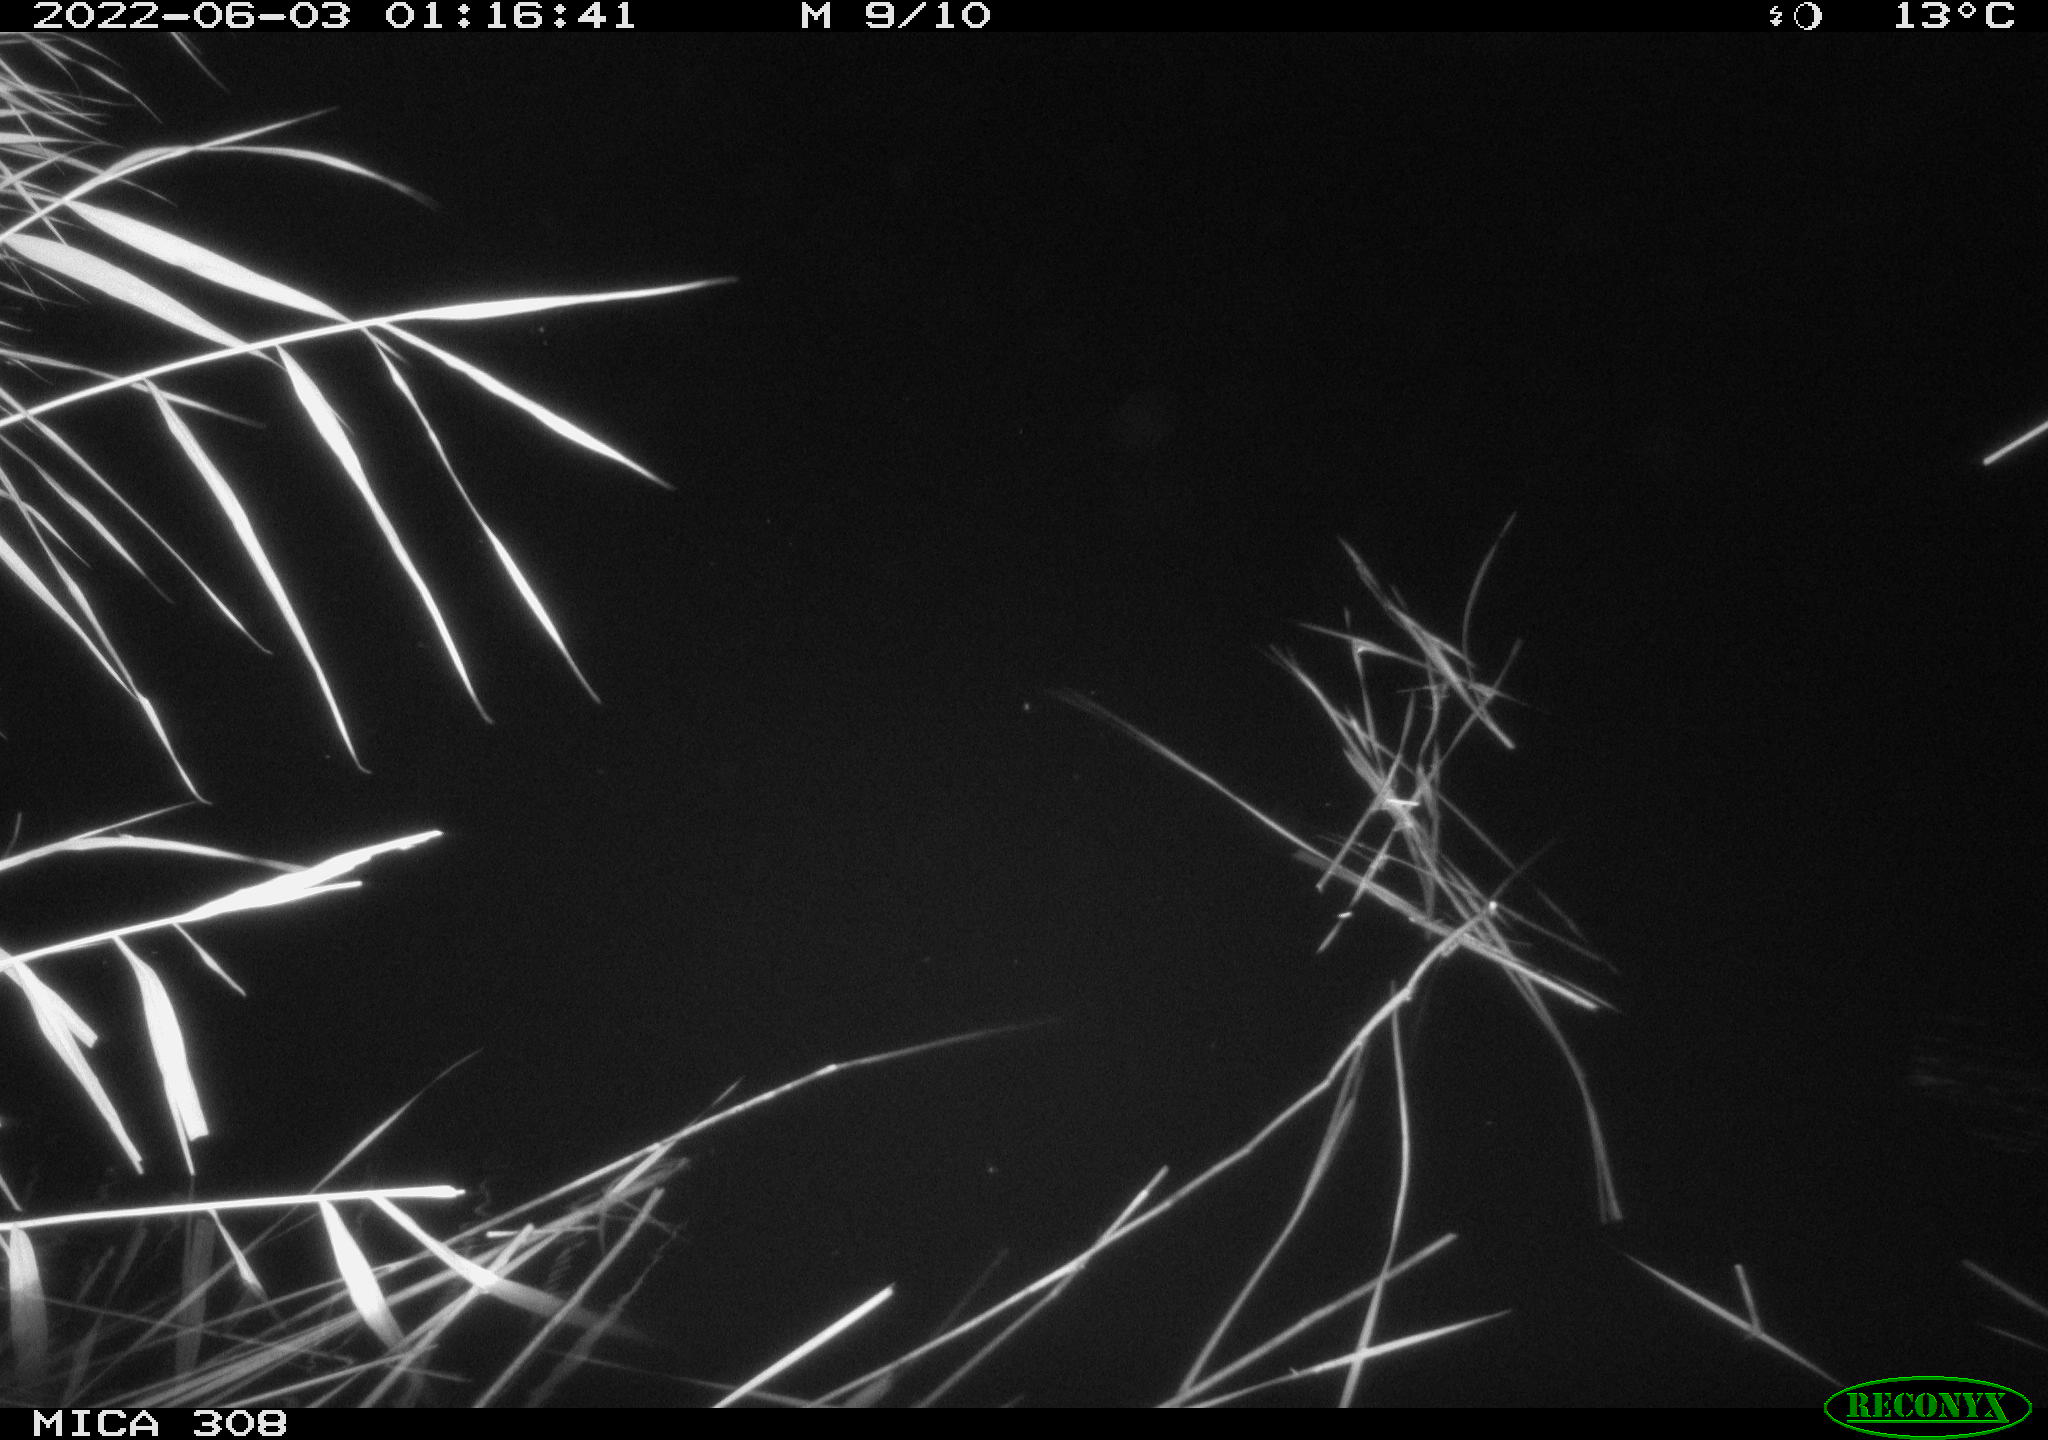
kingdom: Animalia
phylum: Chordata
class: Aves
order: Anseriformes
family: Anatidae
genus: Anas
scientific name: Anas platyrhynchos
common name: Mallard
